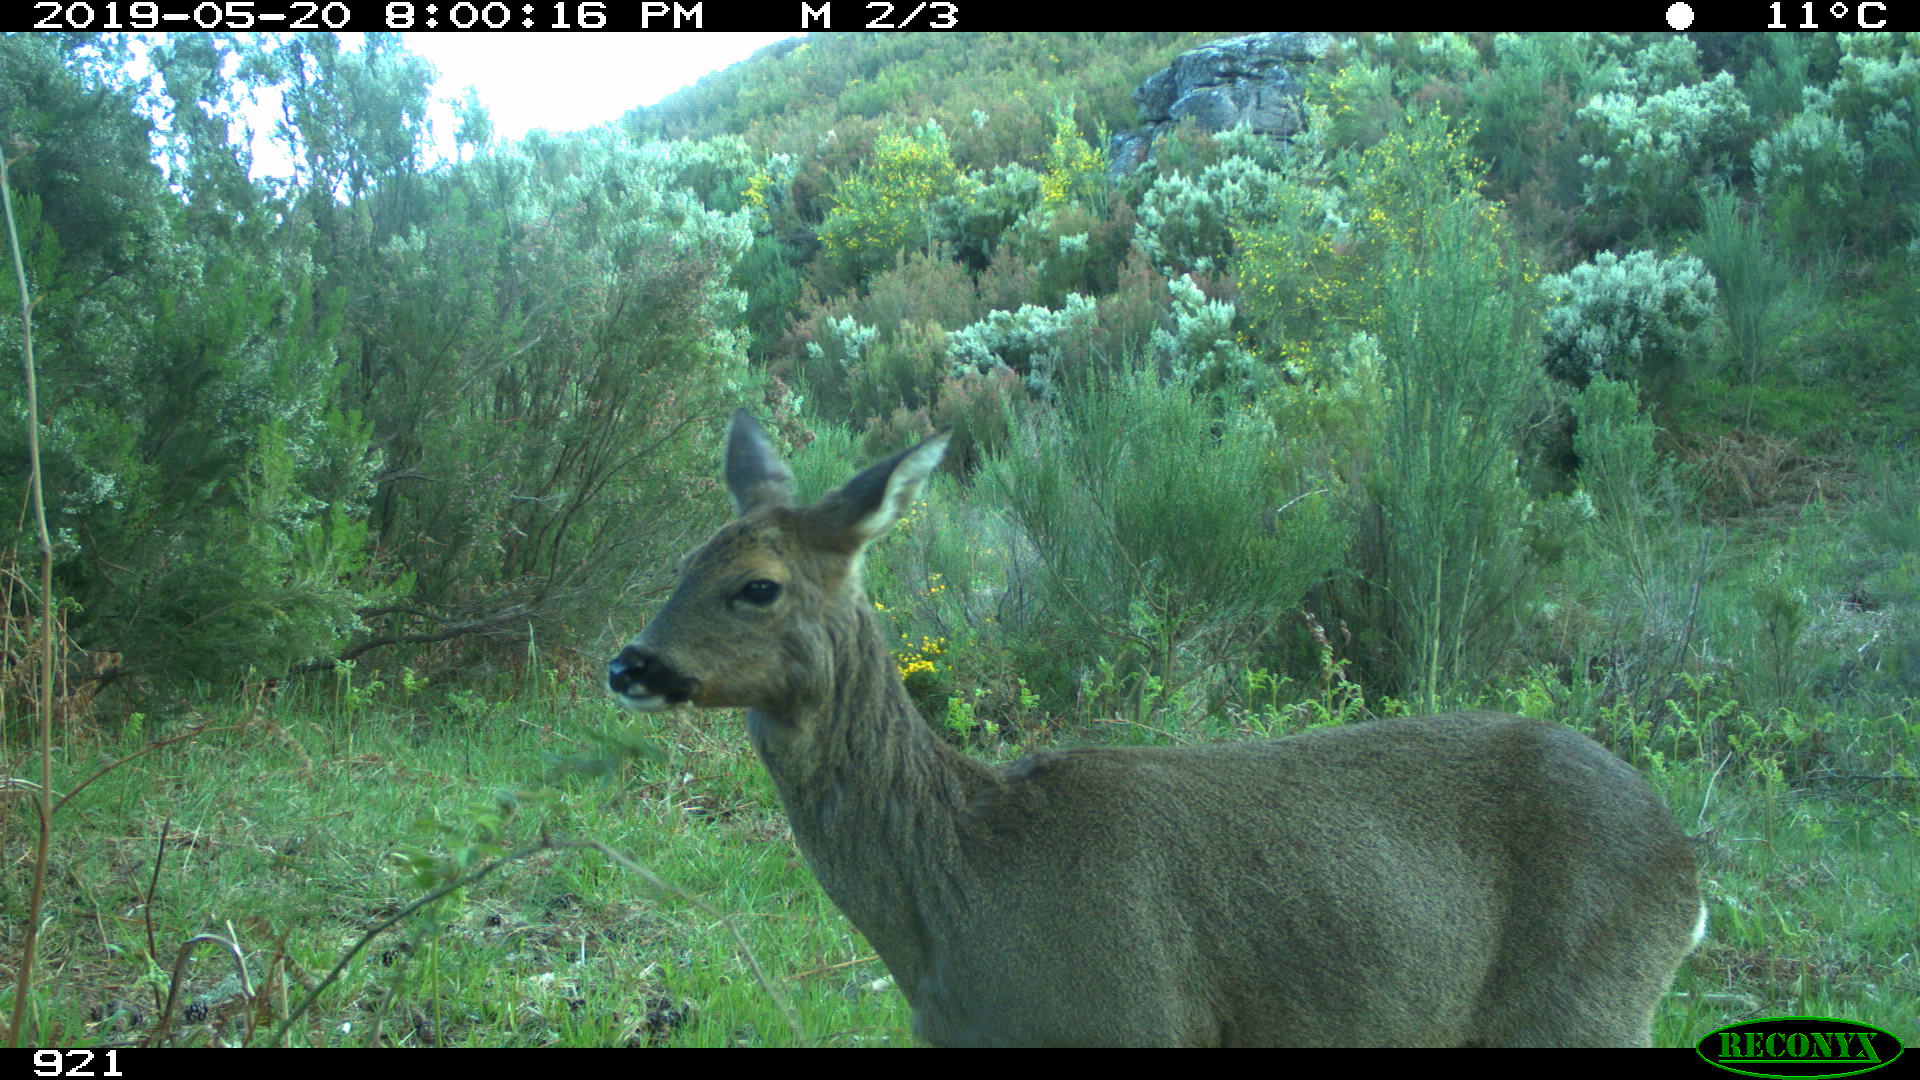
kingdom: Animalia
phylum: Chordata
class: Mammalia
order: Artiodactyla
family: Cervidae
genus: Capreolus
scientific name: Capreolus capreolus
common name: Western roe deer
